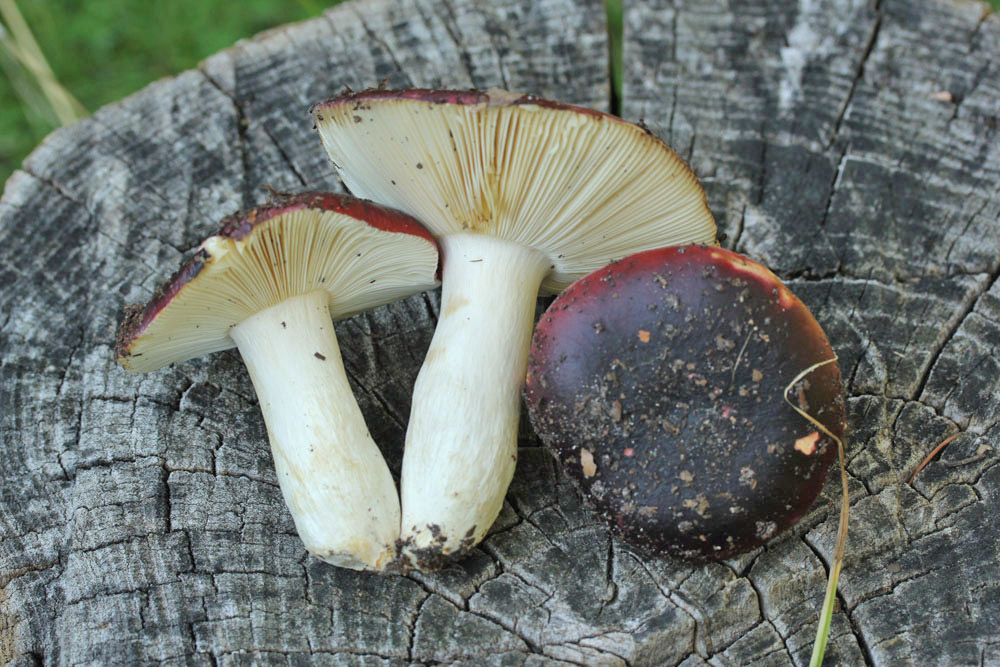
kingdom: Fungi
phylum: Basidiomycota
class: Agaricomycetes
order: Russulales
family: Russulaceae
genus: Russula
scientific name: Russula melliolens
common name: honning-skørhat
